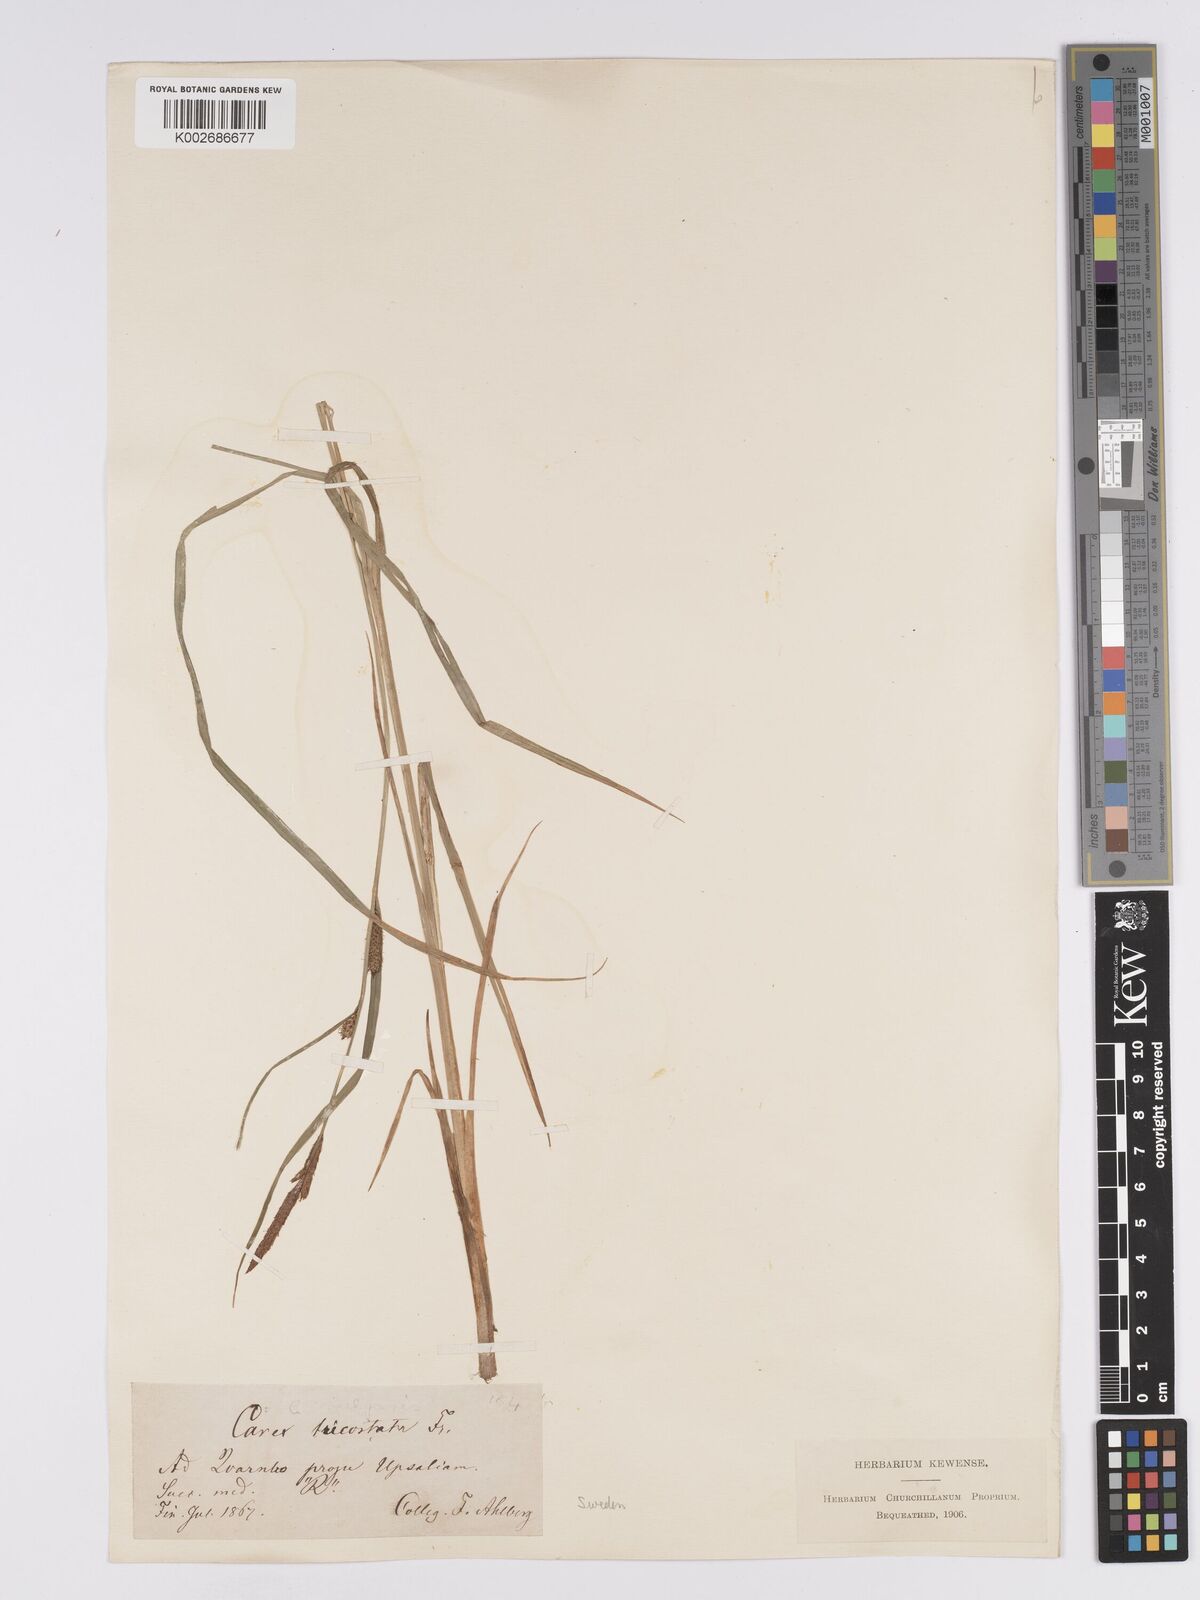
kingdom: Plantae
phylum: Tracheophyta
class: Liliopsida
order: Poales
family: Cyperaceae
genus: Carex
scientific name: Carex aquatilis
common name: Water sedge
